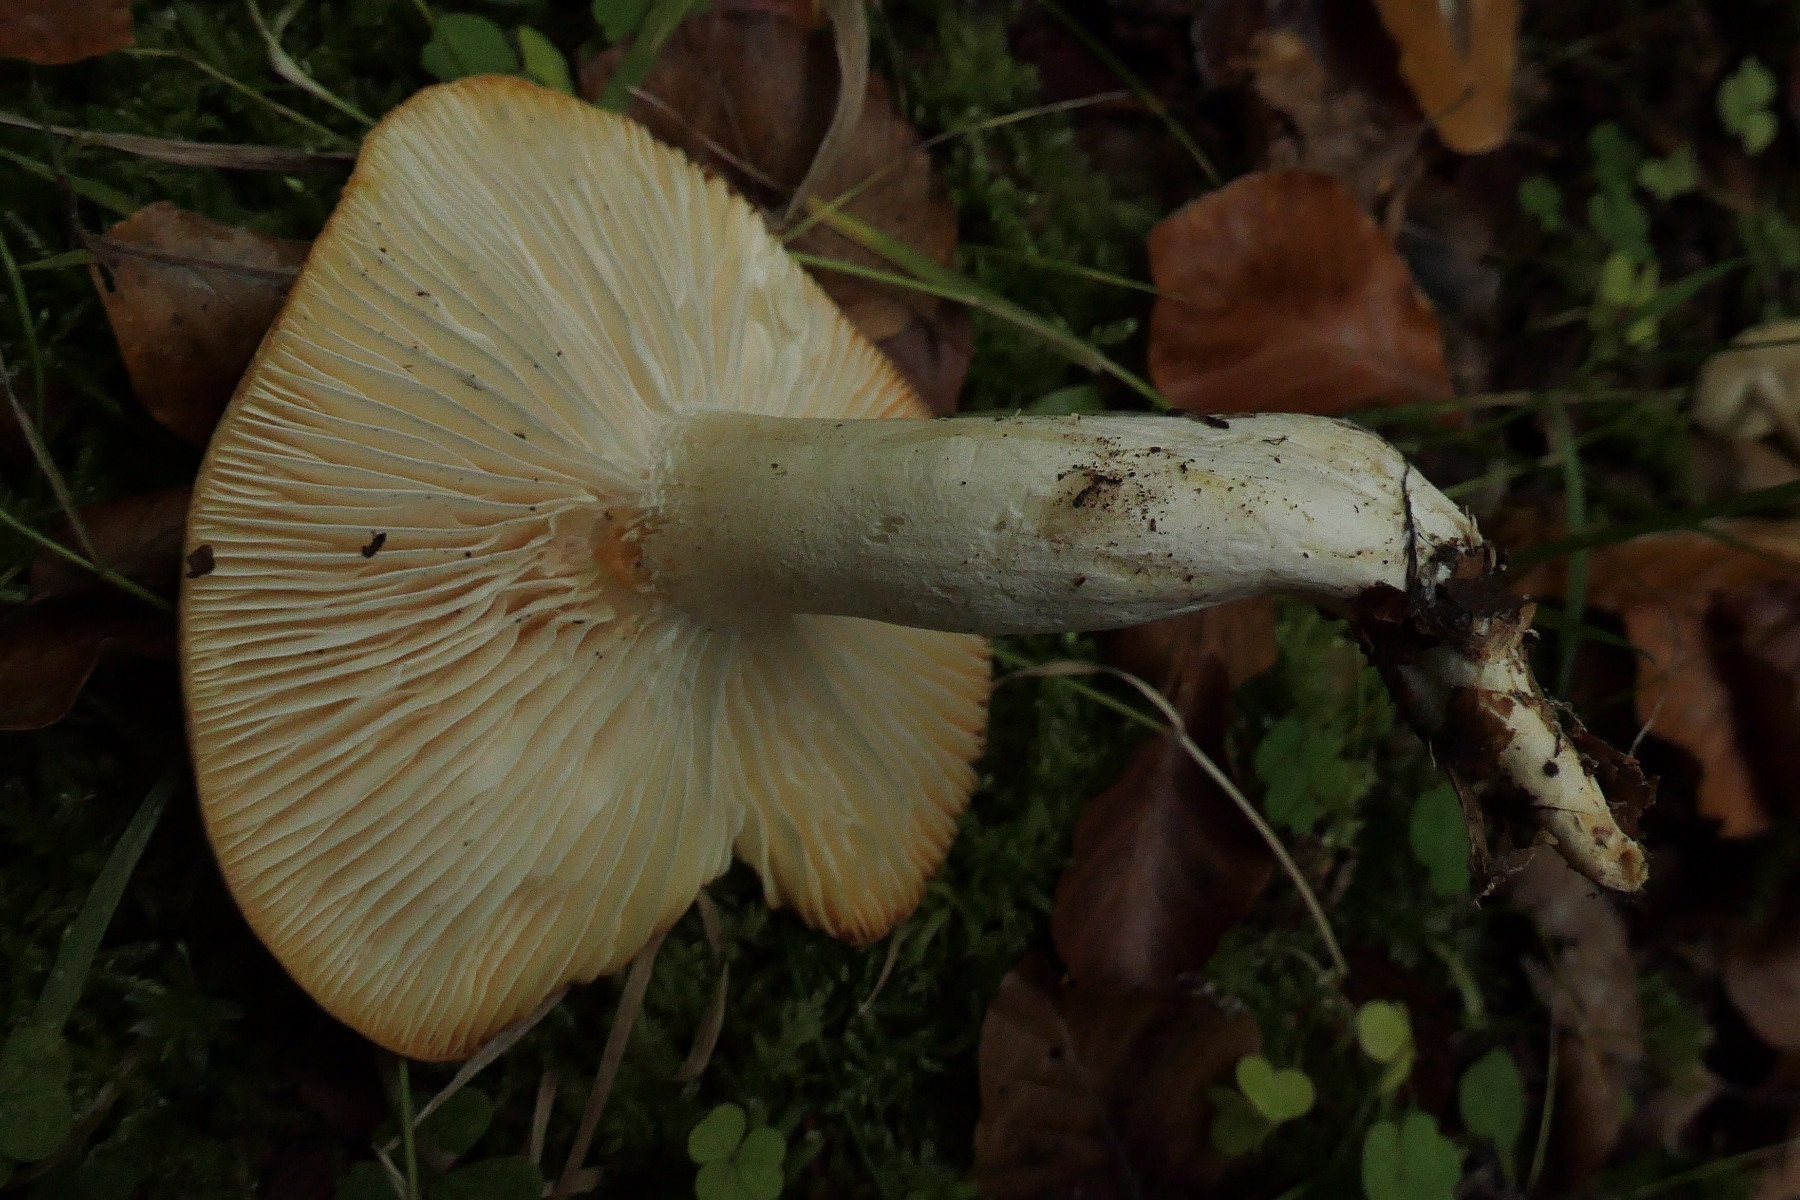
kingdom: Fungi
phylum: Basidiomycota
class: Agaricomycetes
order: Agaricales
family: Hygrophoraceae
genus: Hygrophorus
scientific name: Hygrophorus penarius
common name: spiselig sneglehat
